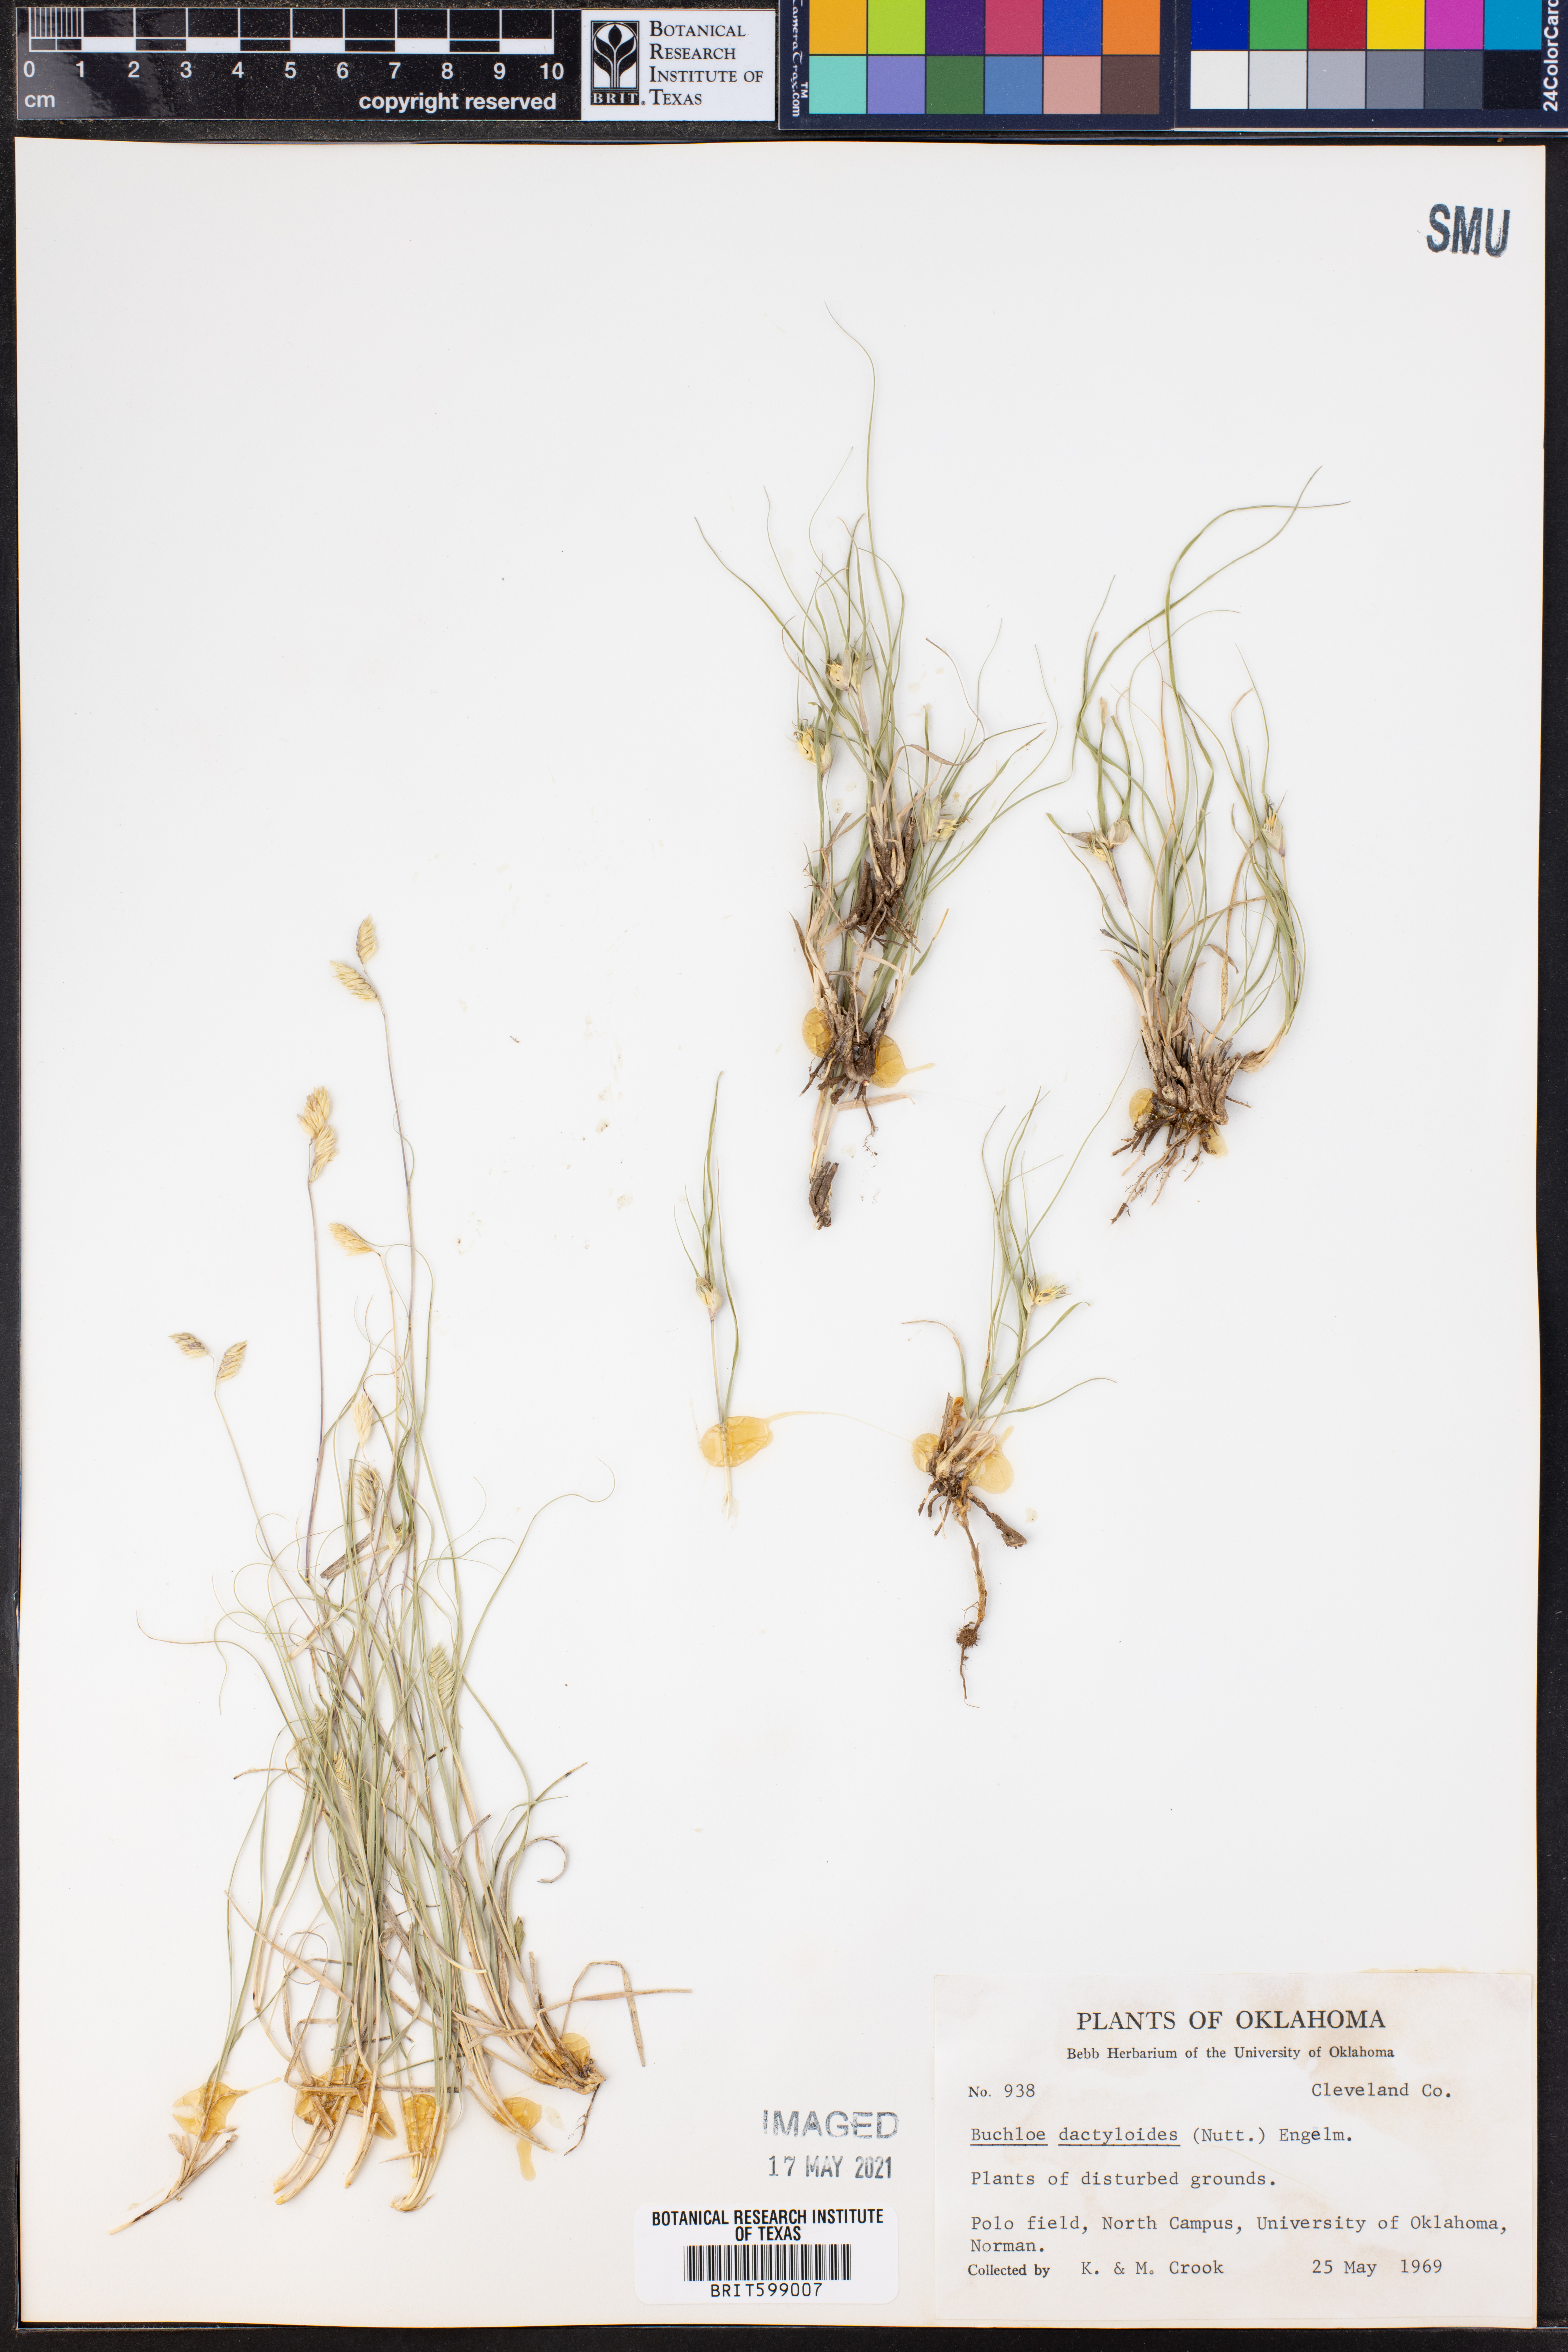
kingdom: Plantae
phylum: Tracheophyta
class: Liliopsida
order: Poales
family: Poaceae
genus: Bouteloua
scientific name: Bouteloua dactyloides
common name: Buffalo grass
